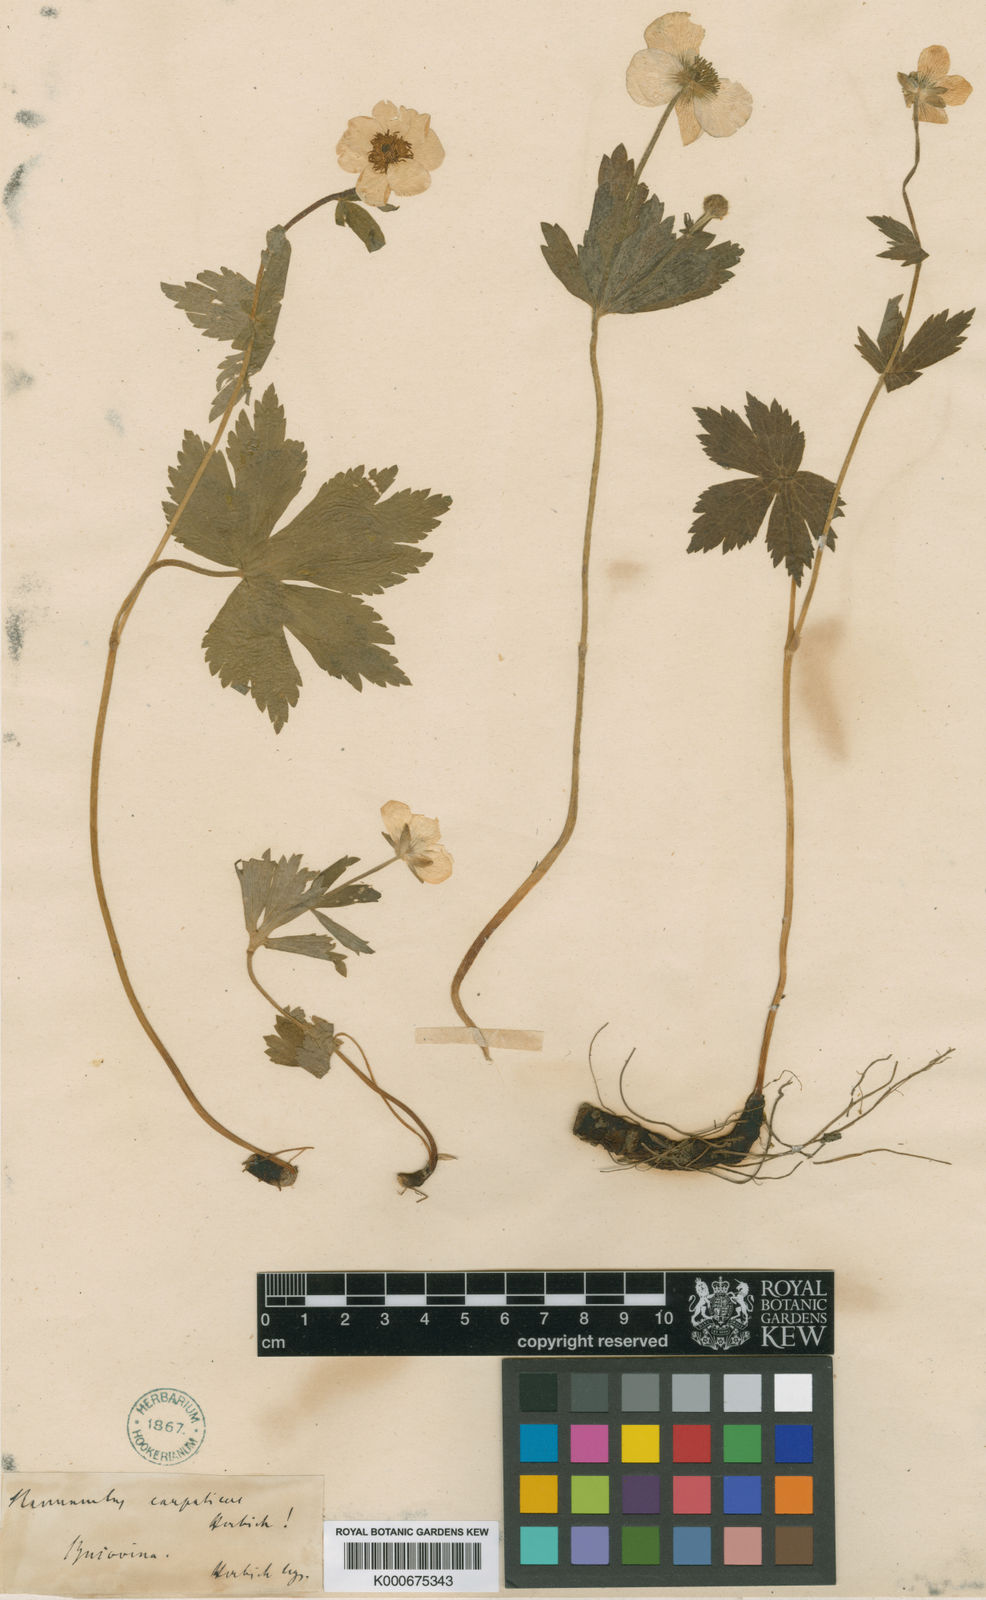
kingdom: Plantae
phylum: Tracheophyta
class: Magnoliopsida
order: Ranunculales
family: Ranunculaceae
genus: Ranunculus
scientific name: Ranunculus carpaticus
